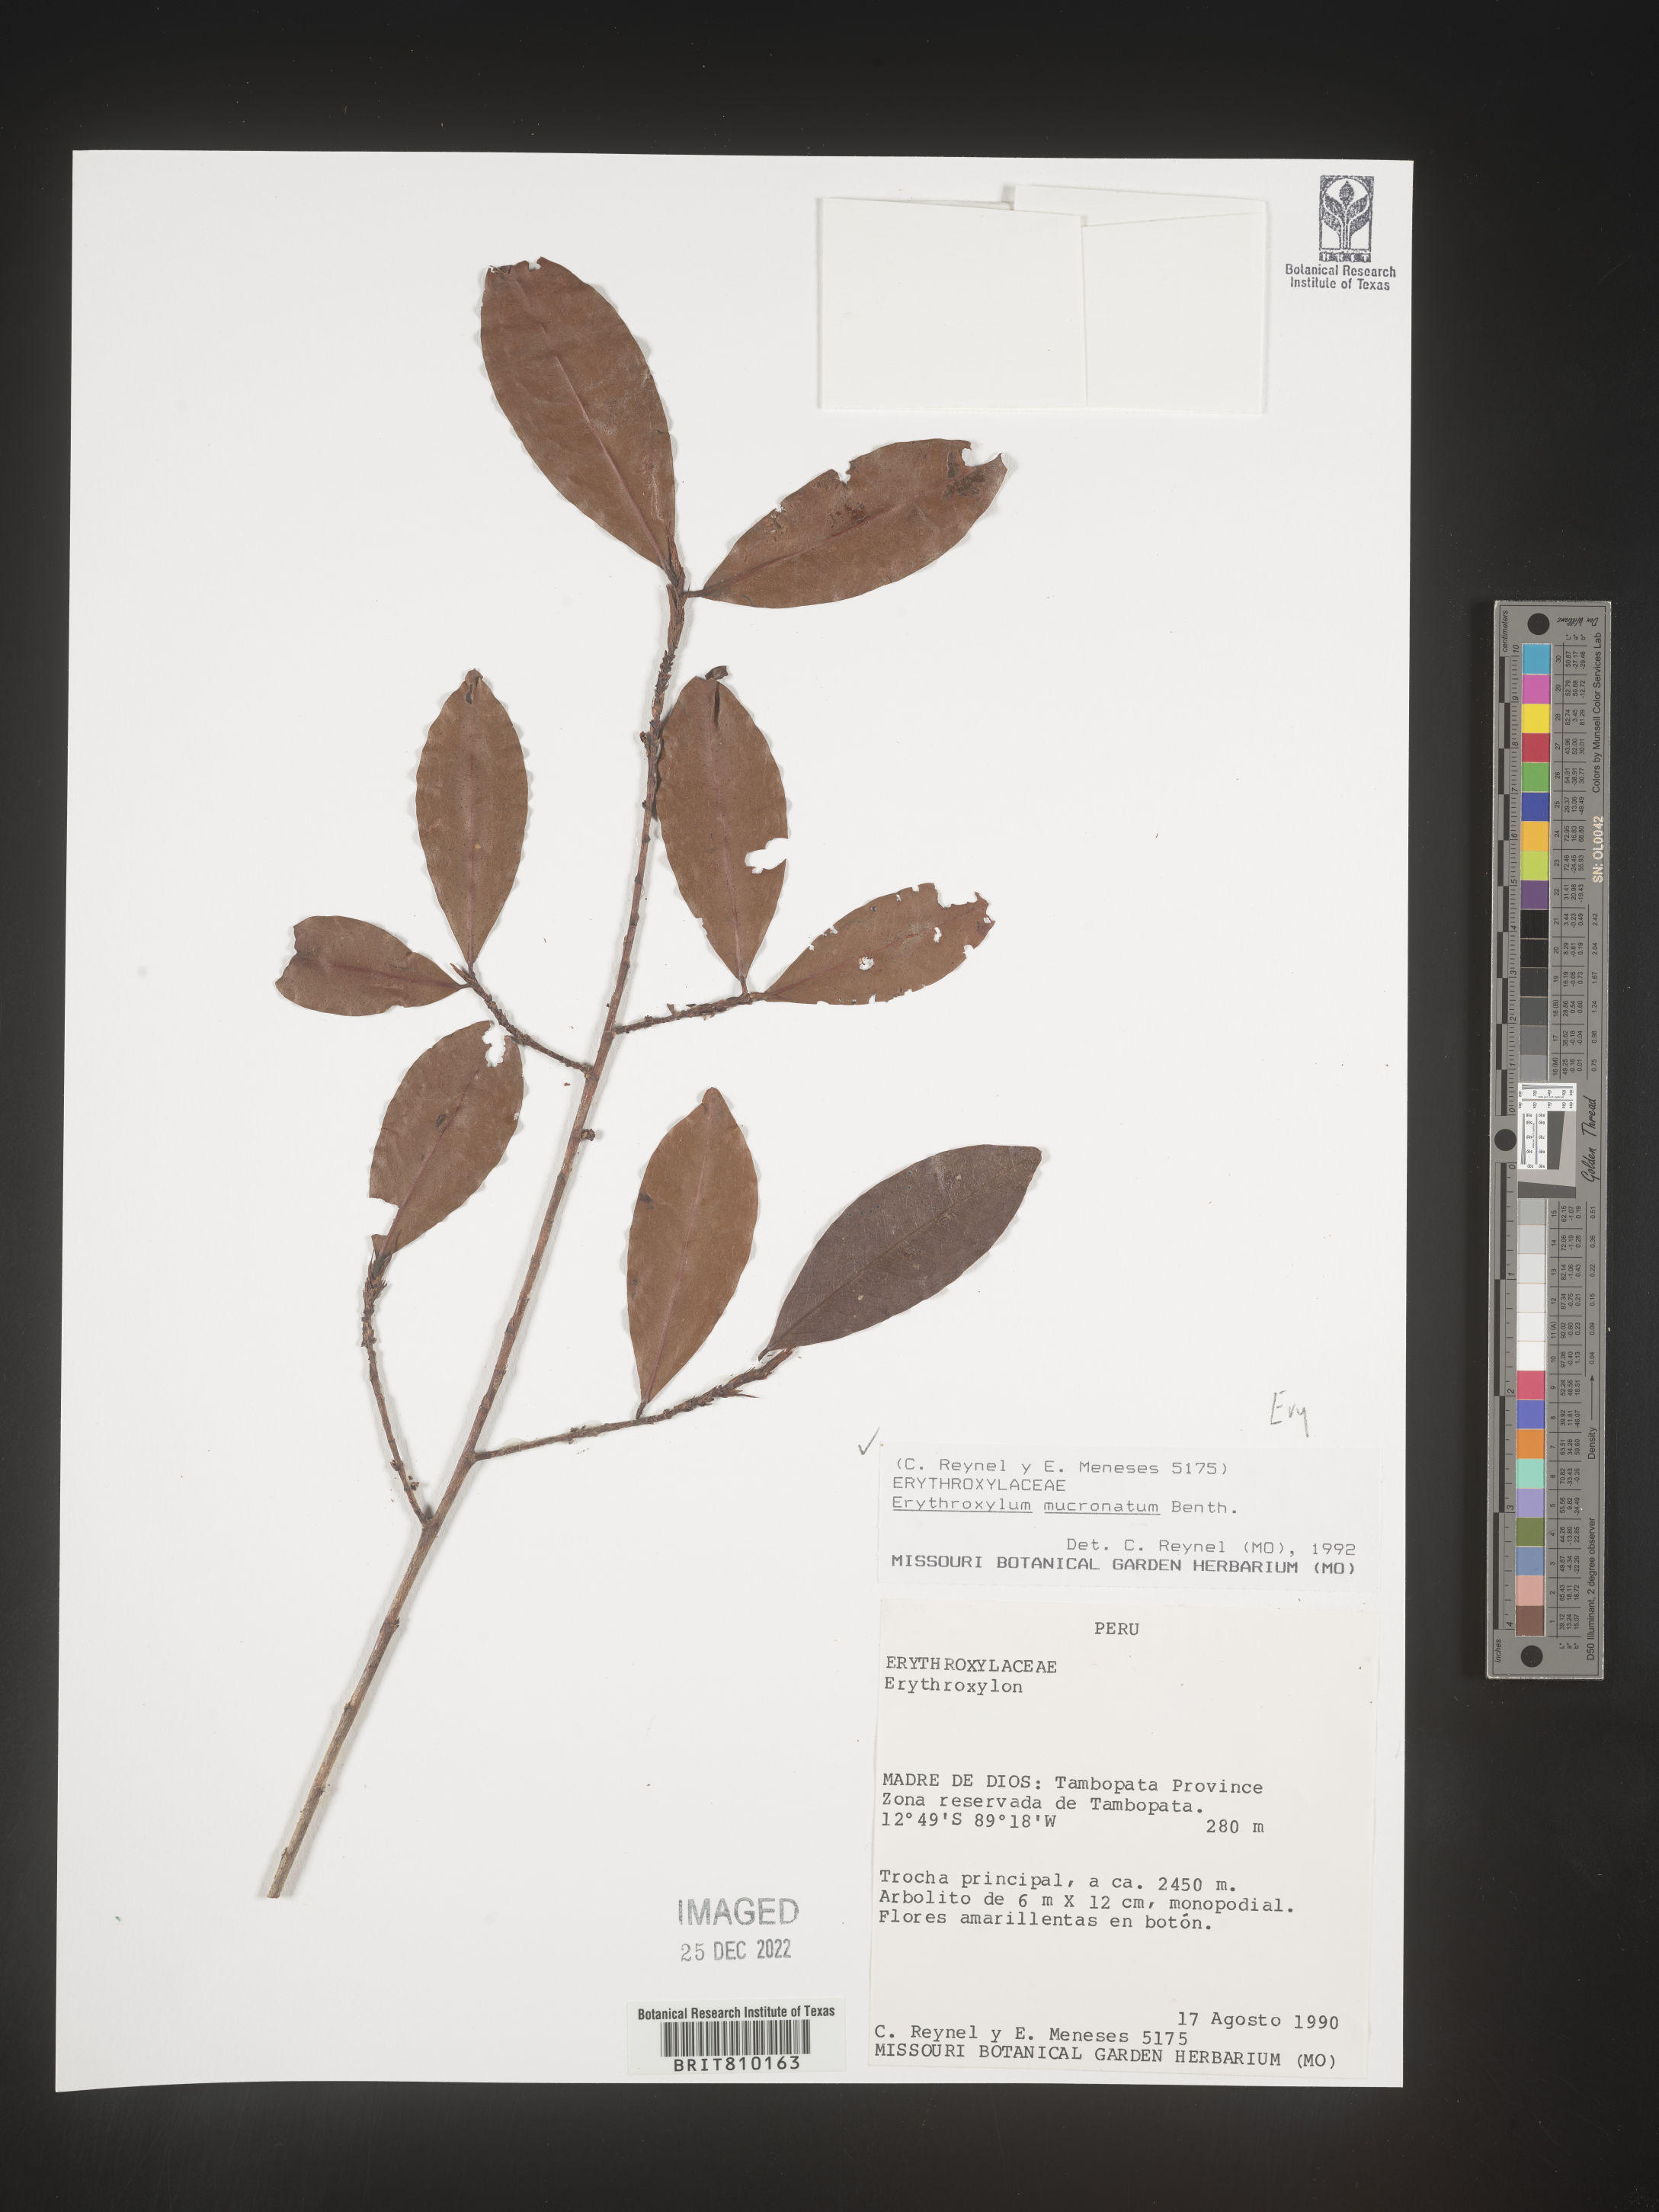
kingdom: Plantae
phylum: Tracheophyta
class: Magnoliopsida
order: Malpighiales
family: Erythroxylaceae
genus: Erythroxylum
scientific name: Erythroxylum
